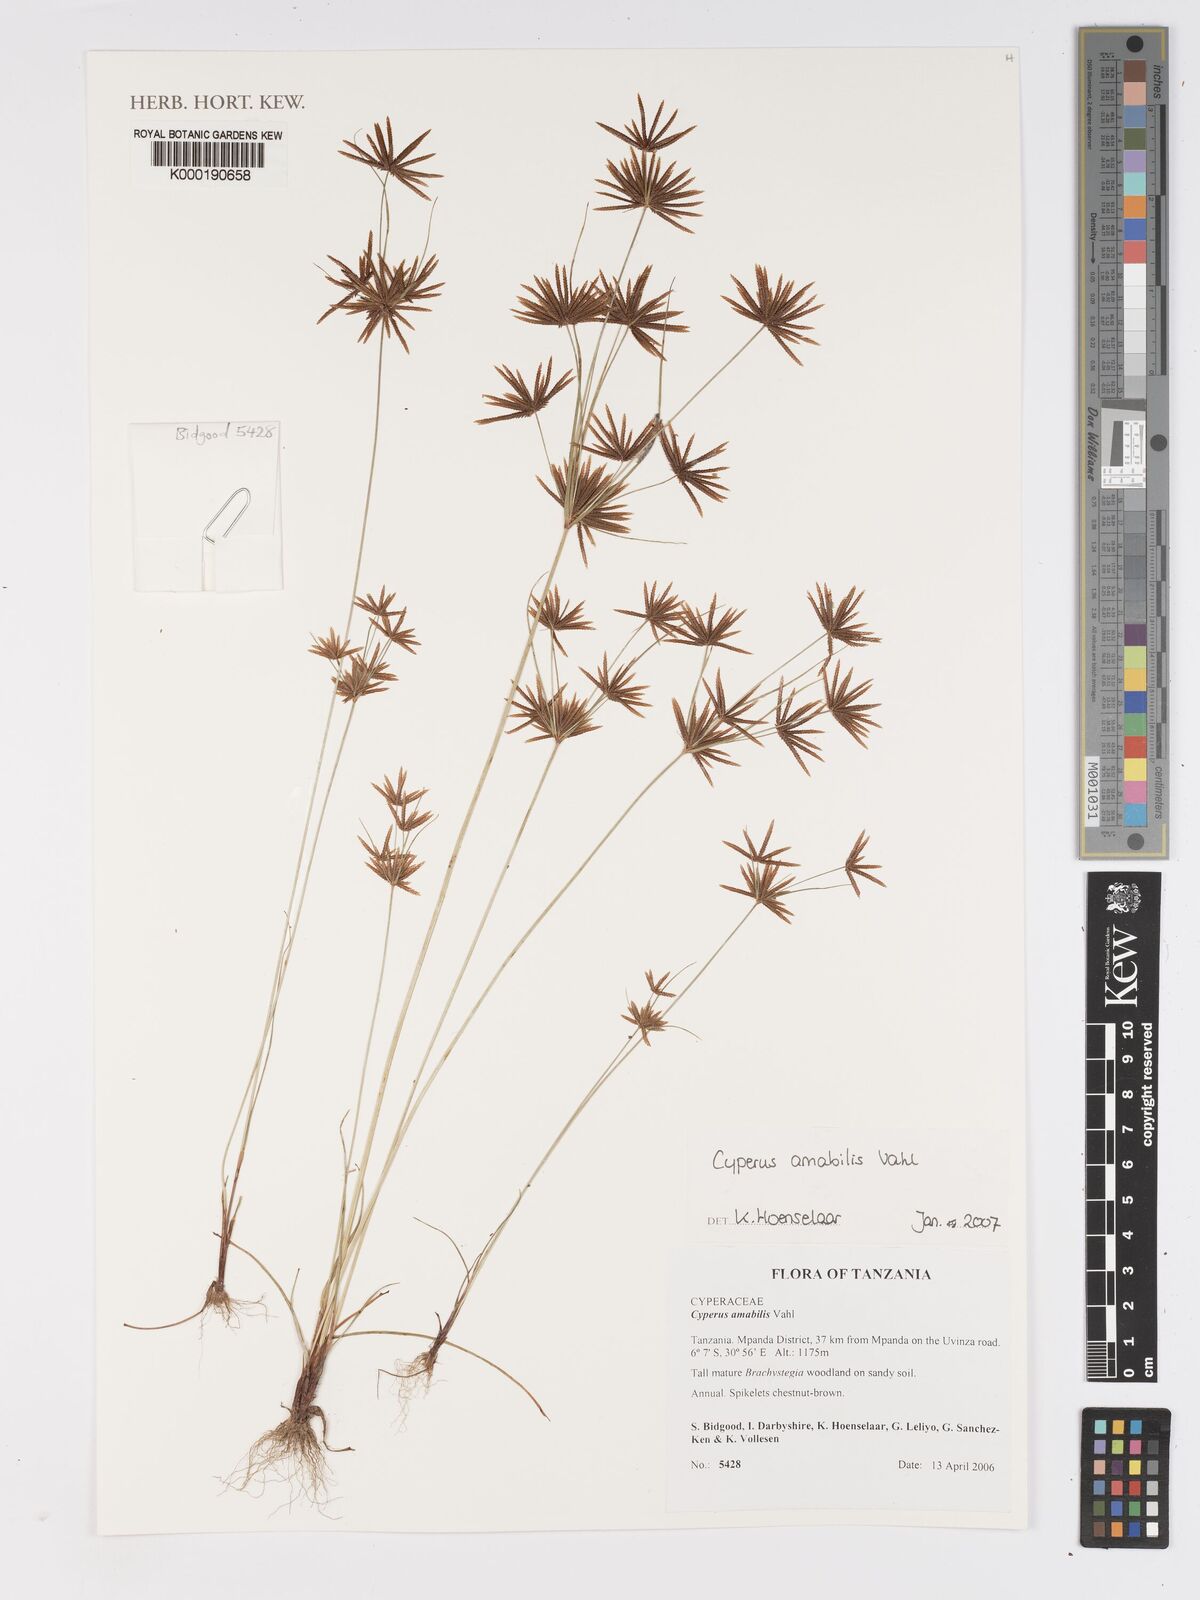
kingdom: Plantae
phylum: Tracheophyta
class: Liliopsida
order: Poales
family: Cyperaceae
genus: Cyperus
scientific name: Cyperus amabilis
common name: Foothill flat sedge
